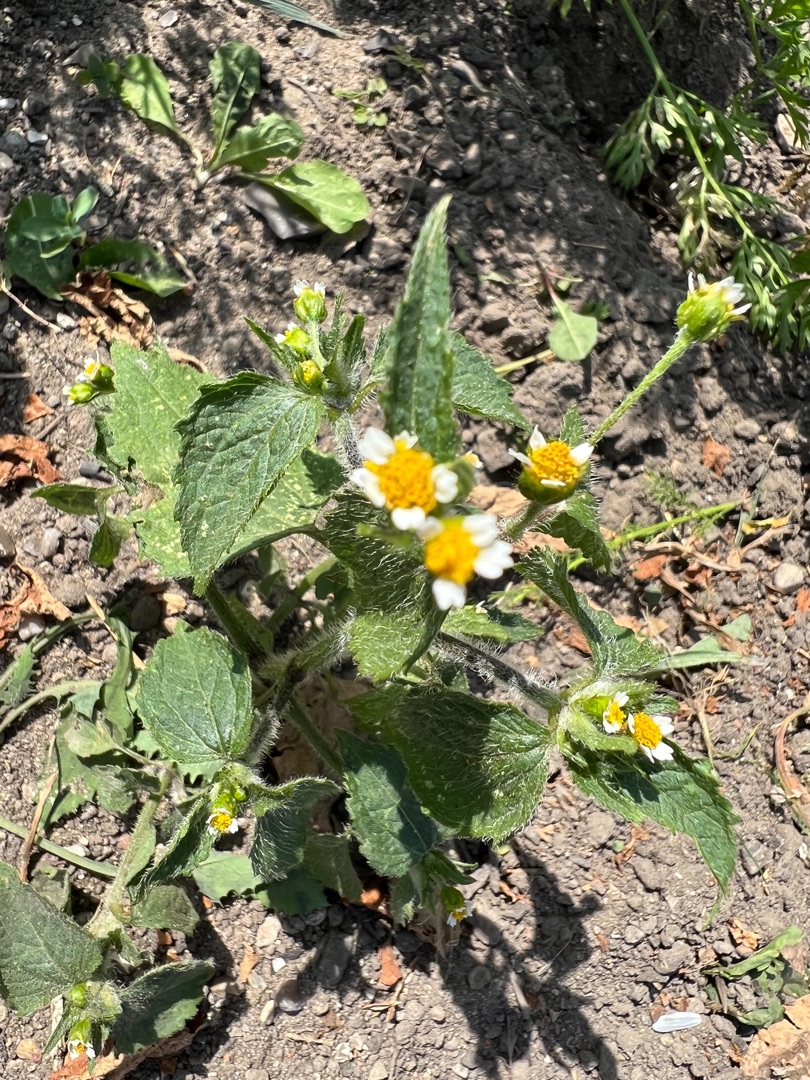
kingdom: Plantae
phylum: Tracheophyta
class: Magnoliopsida
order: Asterales
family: Asteraceae
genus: Galinsoga
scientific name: Galinsoga quadriradiata
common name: Kirtel-kortstråle
